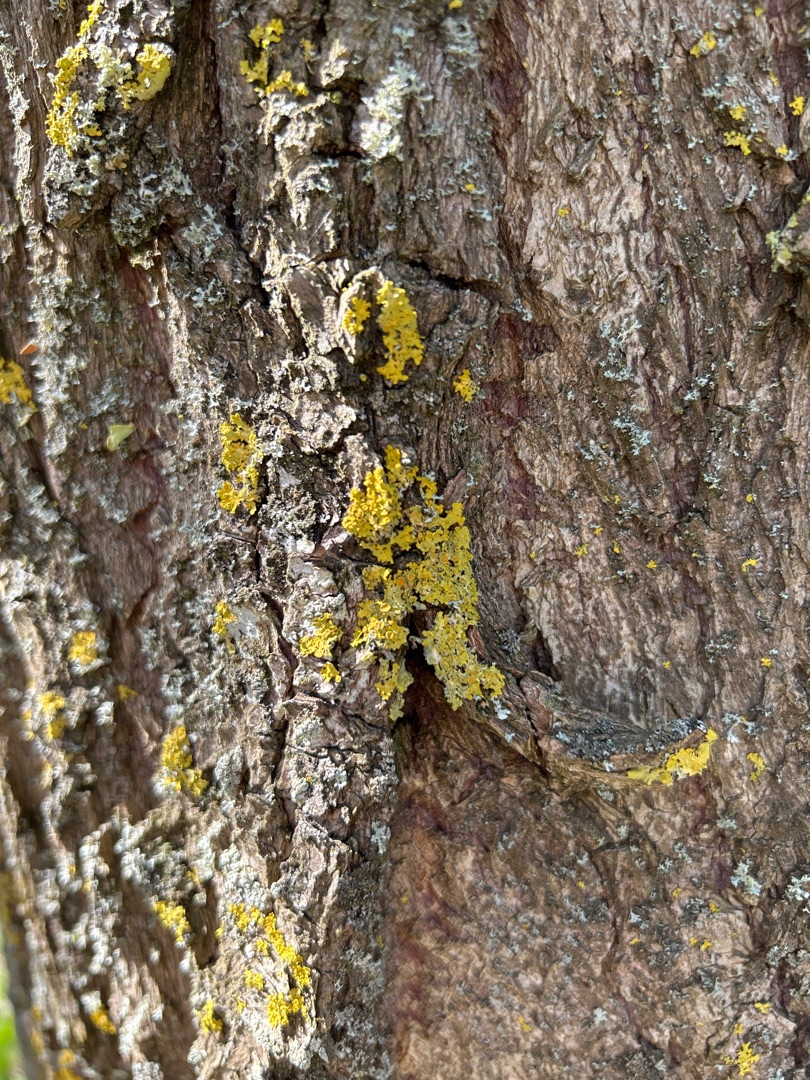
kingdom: Fungi
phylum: Ascomycota
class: Lecanoromycetes
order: Teloschistales
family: Teloschistaceae
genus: Xanthoria
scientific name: Xanthoria parietina
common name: Almindelig væggelav
